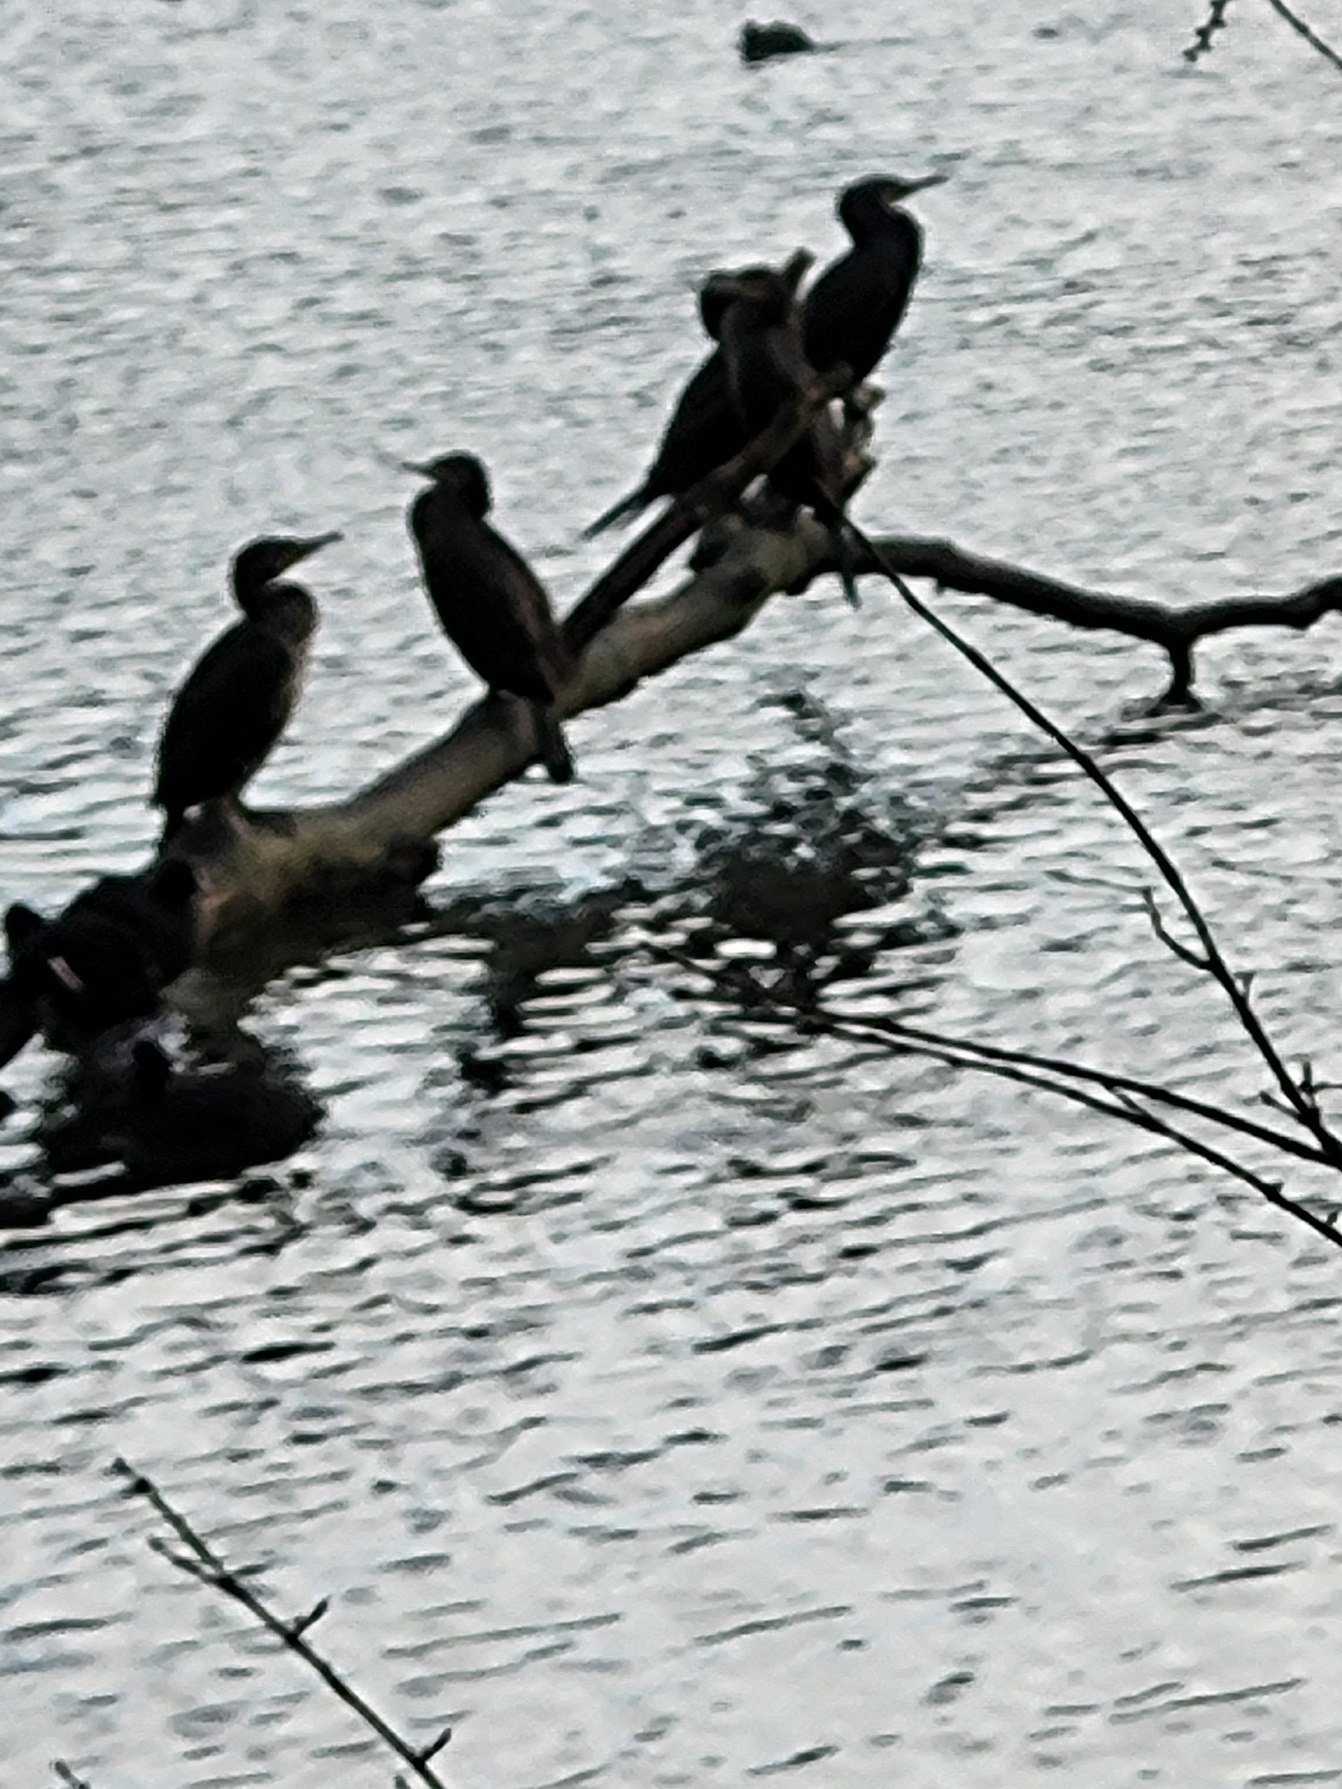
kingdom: Animalia
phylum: Chordata
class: Aves
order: Suliformes
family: Phalacrocoracidae
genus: Phalacrocorax
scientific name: Phalacrocorax carbo
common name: Skarv
